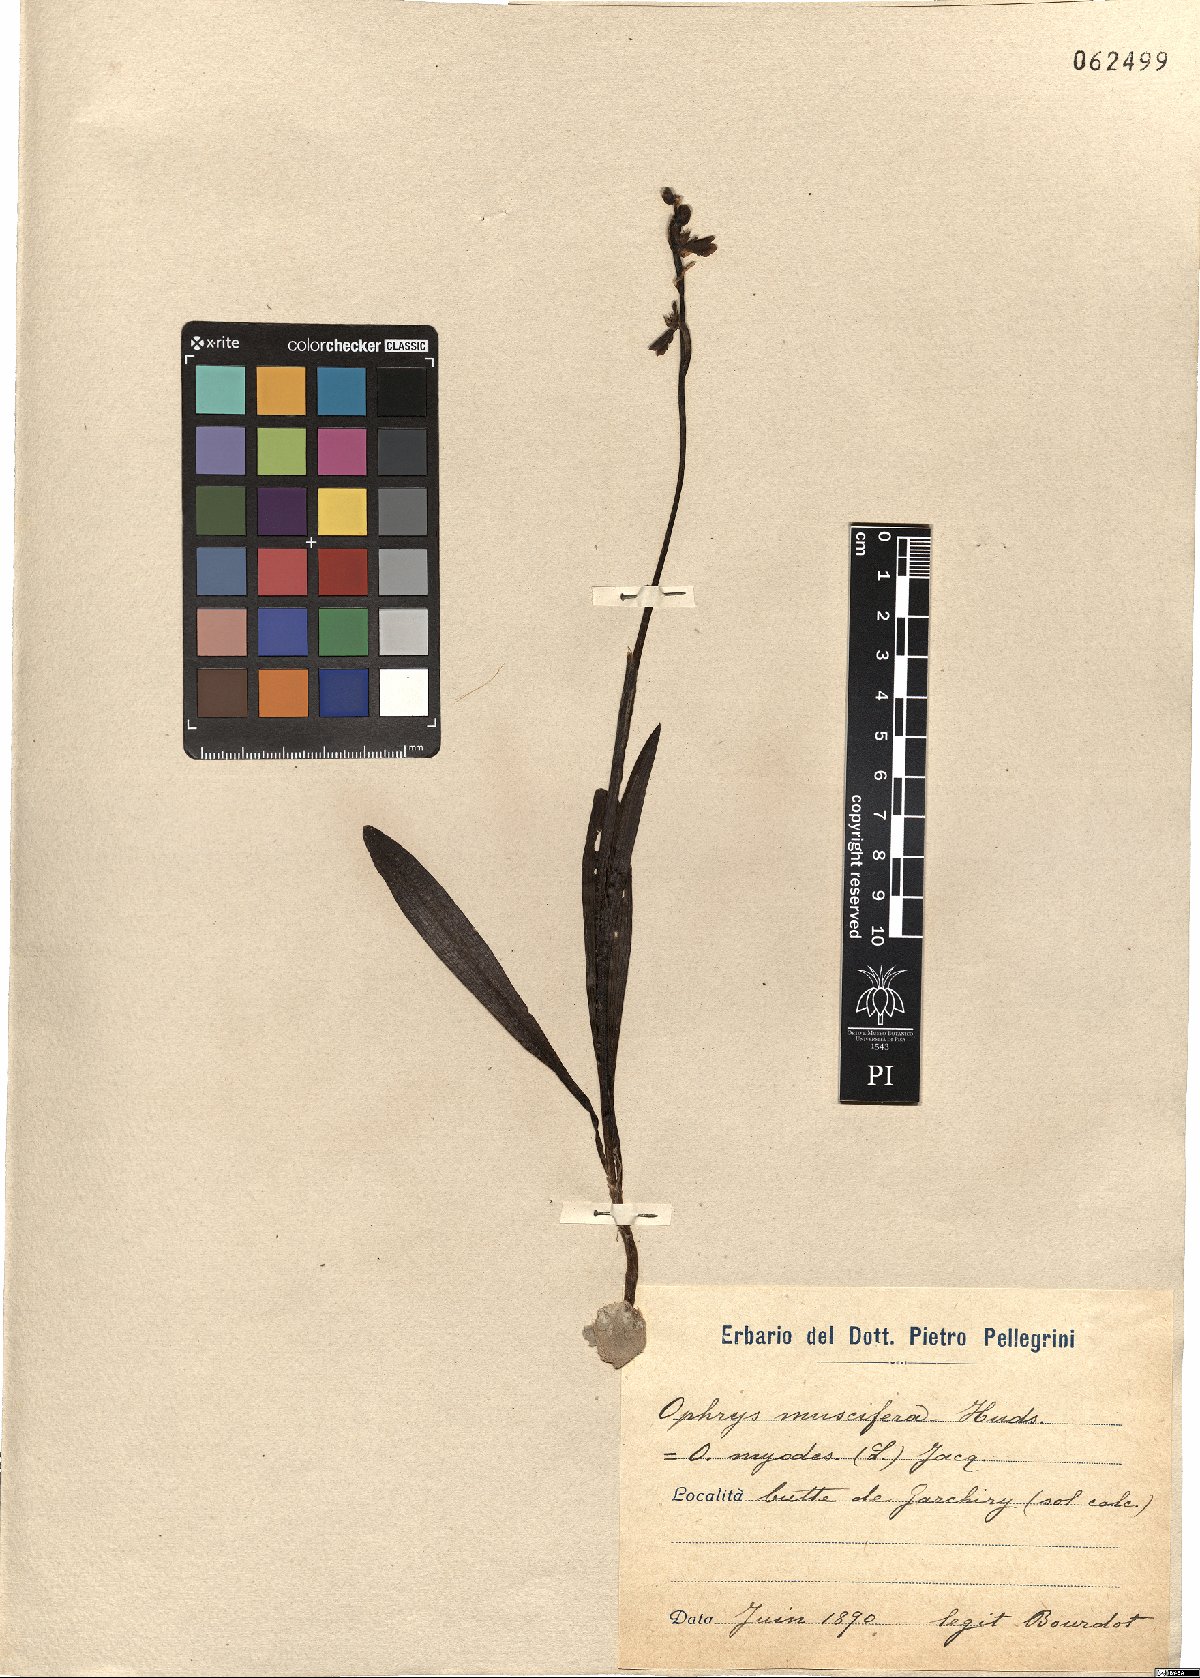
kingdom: Plantae
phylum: Tracheophyta
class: Liliopsida
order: Asparagales
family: Orchidaceae
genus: Ophrys
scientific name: Ophrys insectifera
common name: Fly orchid
